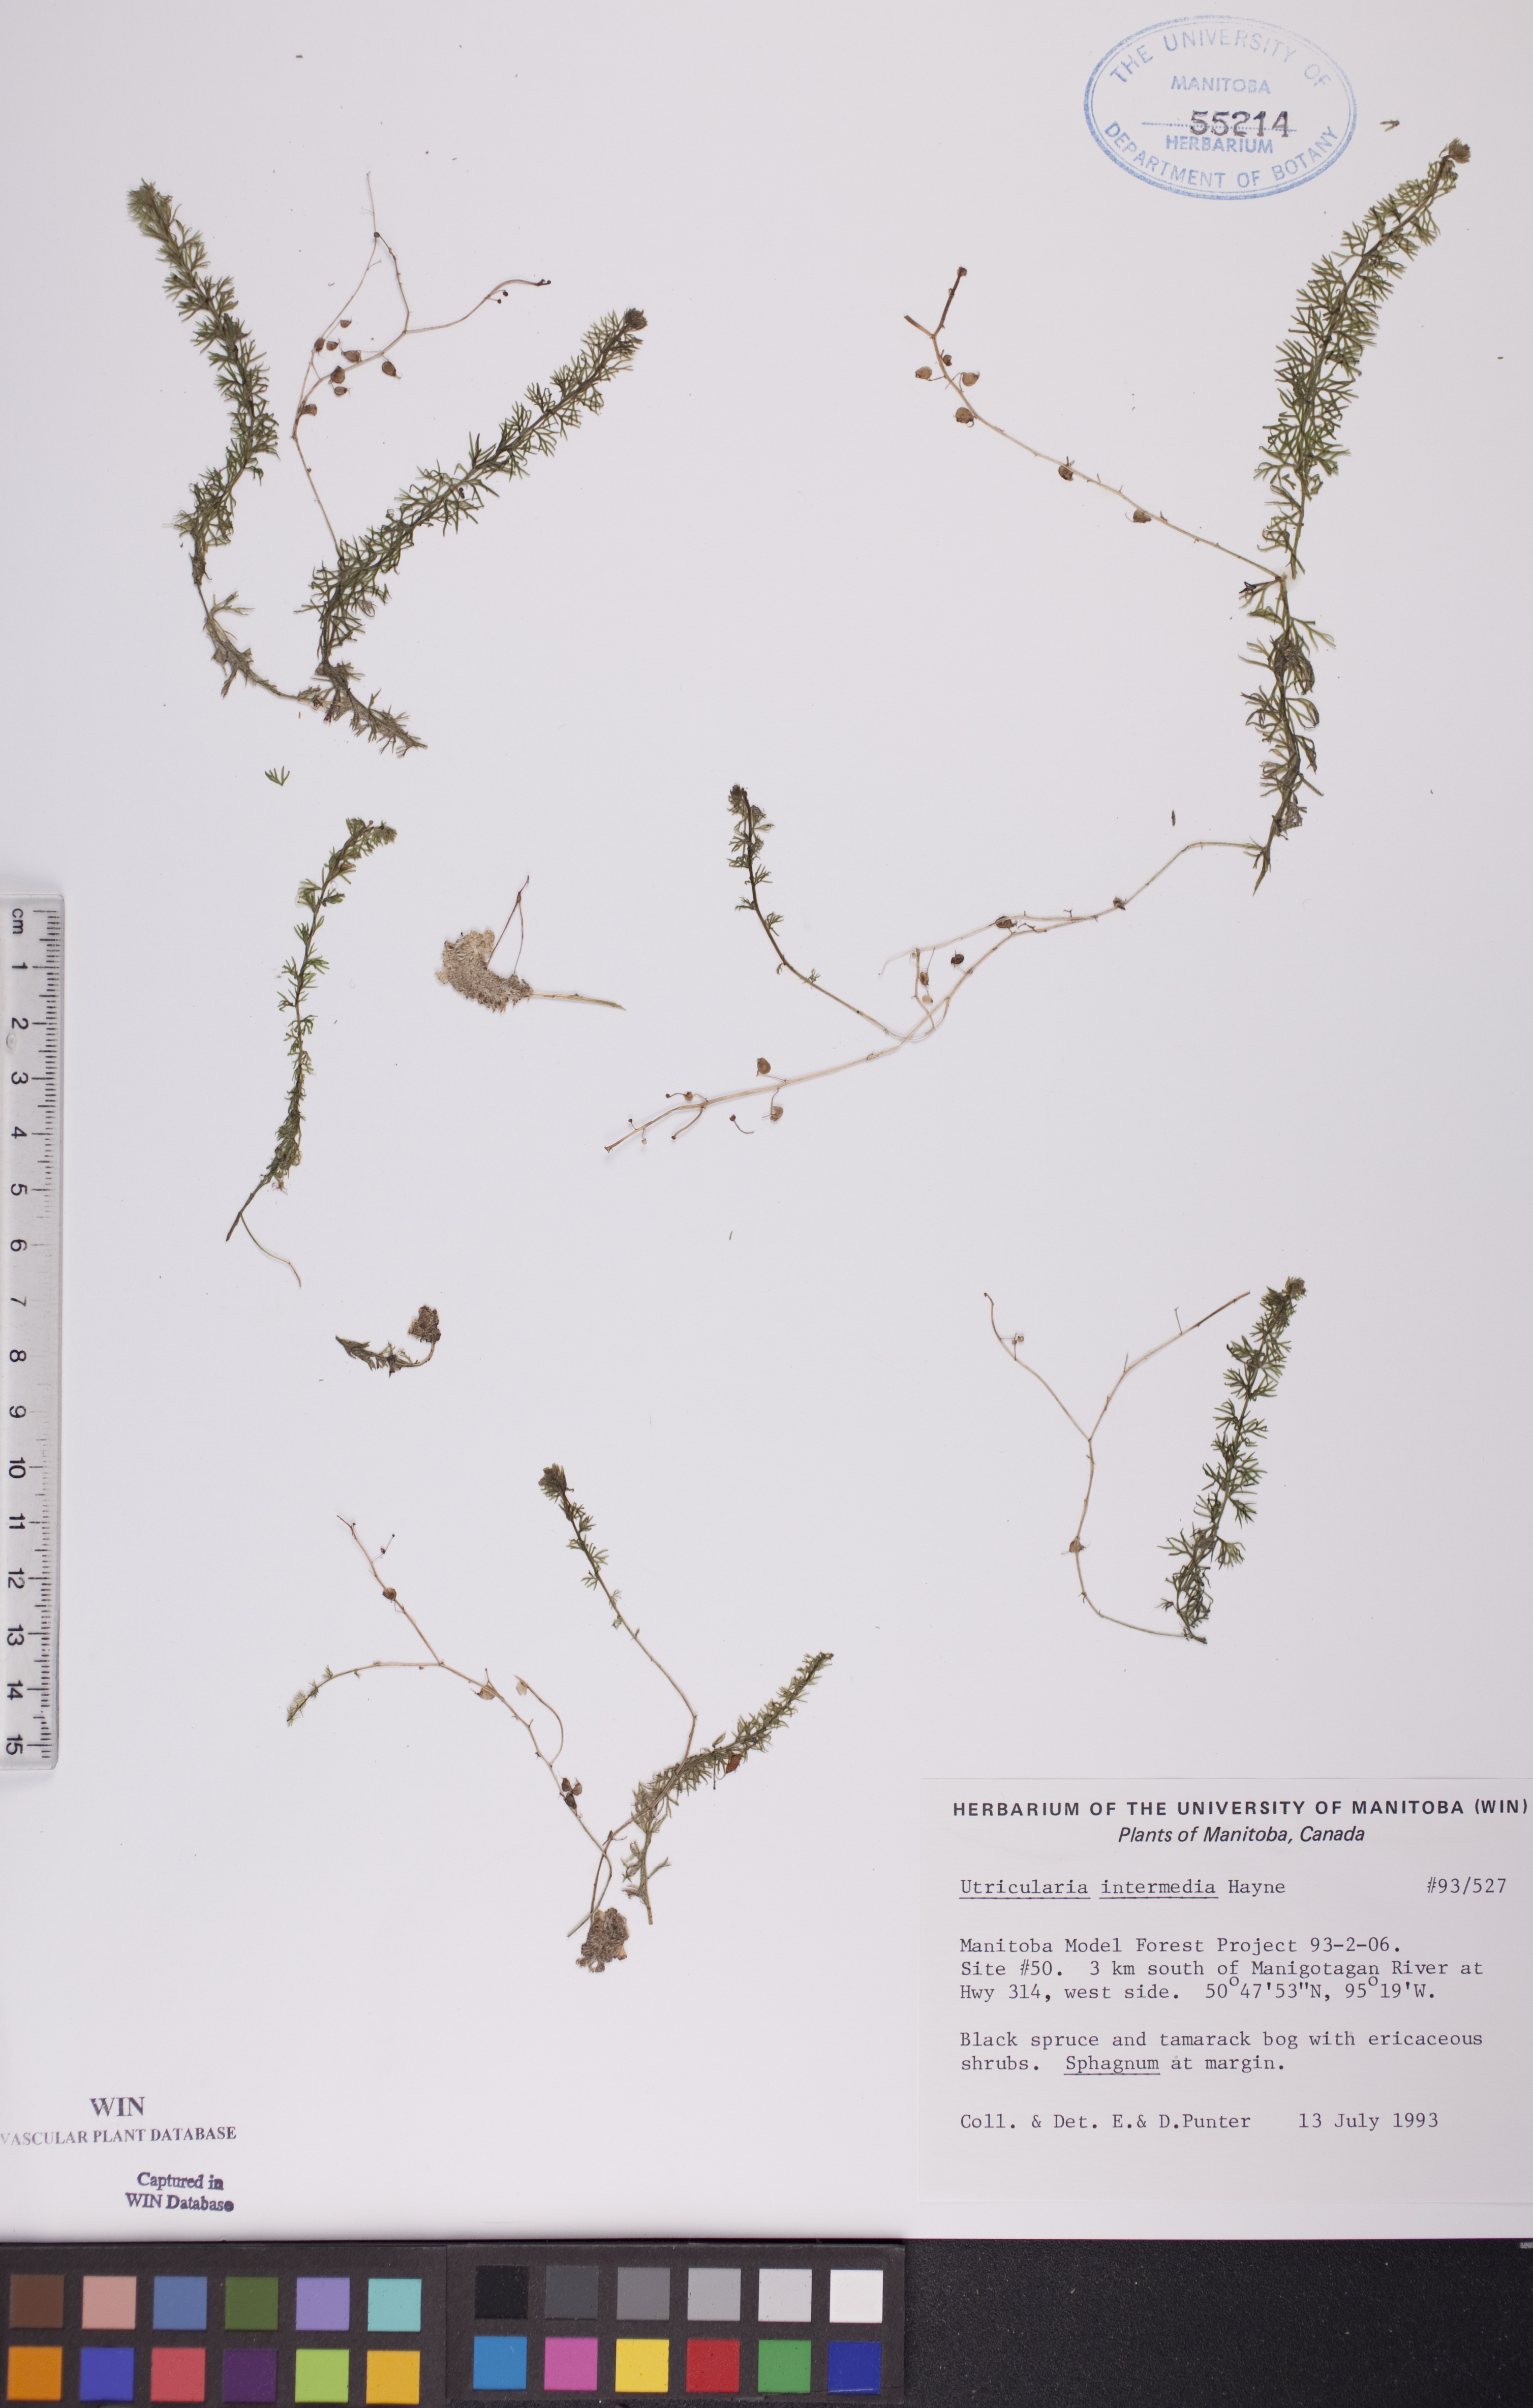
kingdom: Plantae
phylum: Tracheophyta
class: Magnoliopsida
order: Lamiales
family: Lentibulariaceae
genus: Utricularia
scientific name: Utricularia intermedia
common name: Intermediate bladderwort
